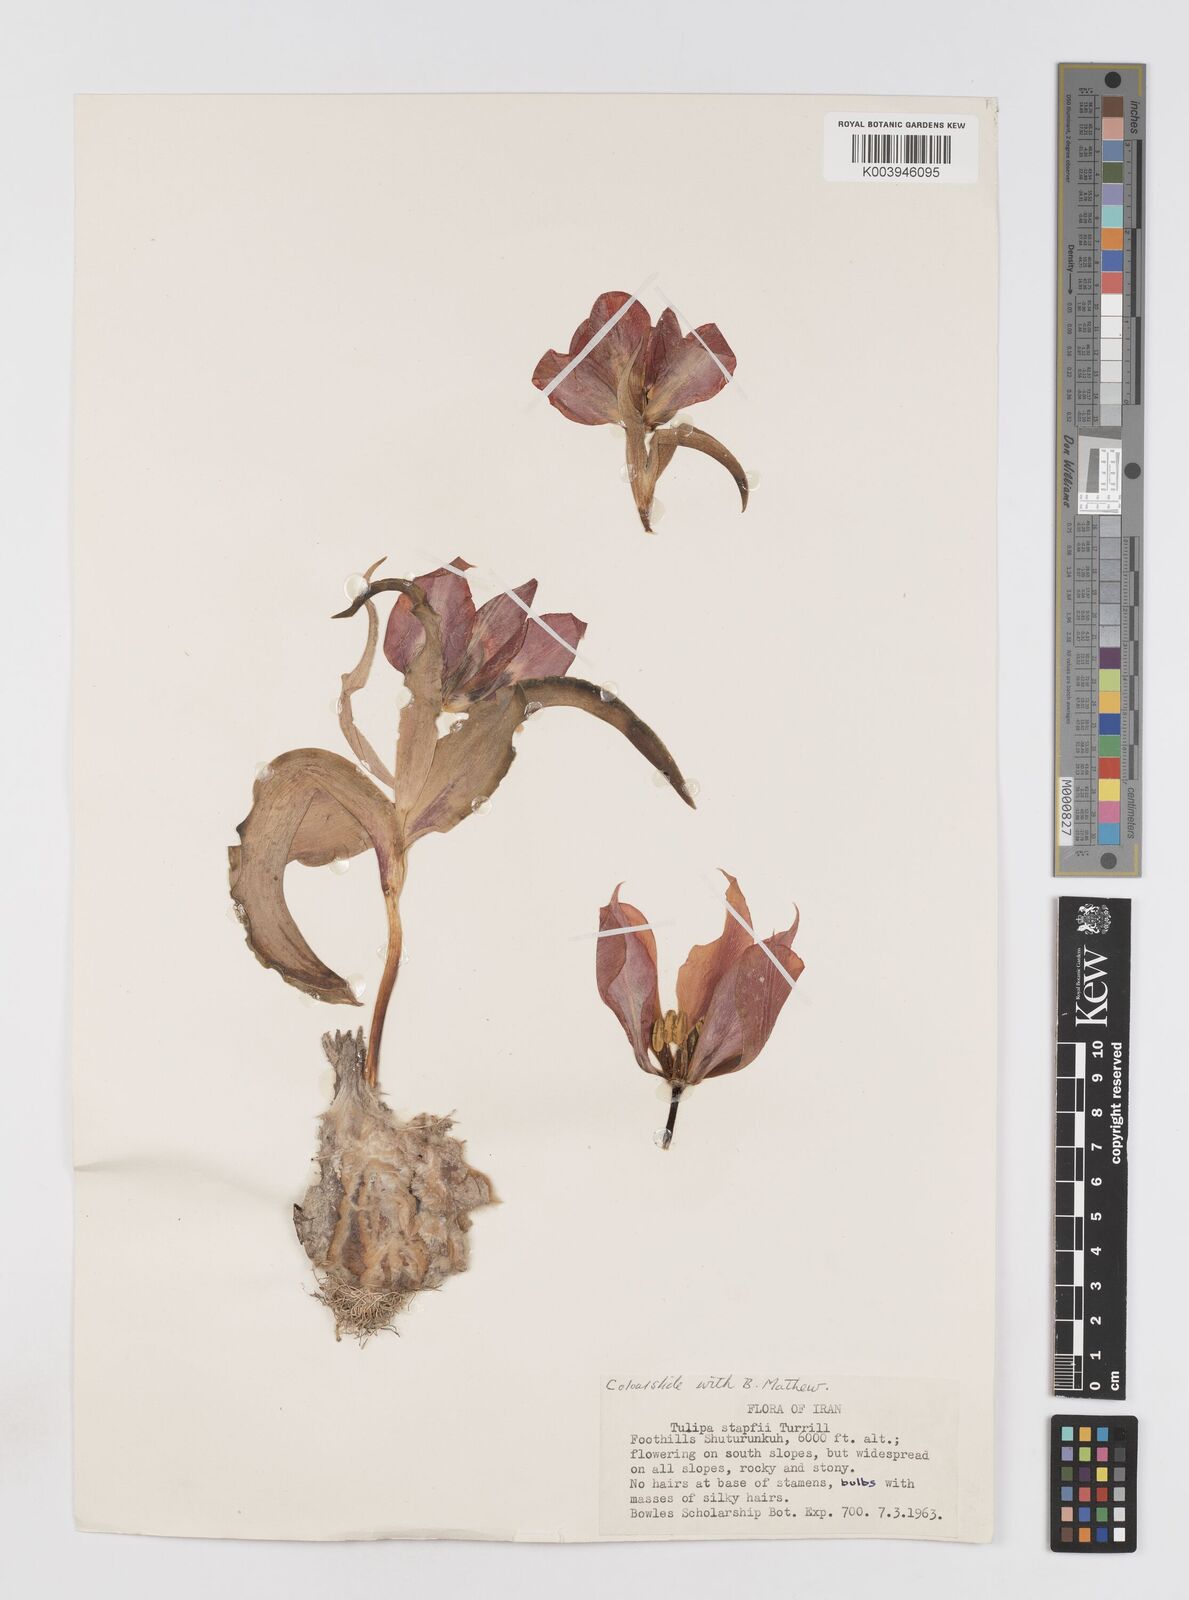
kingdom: Plantae
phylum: Tracheophyta
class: Liliopsida
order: Liliales
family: Liliaceae
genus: Tulipa
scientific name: Tulipa systola
